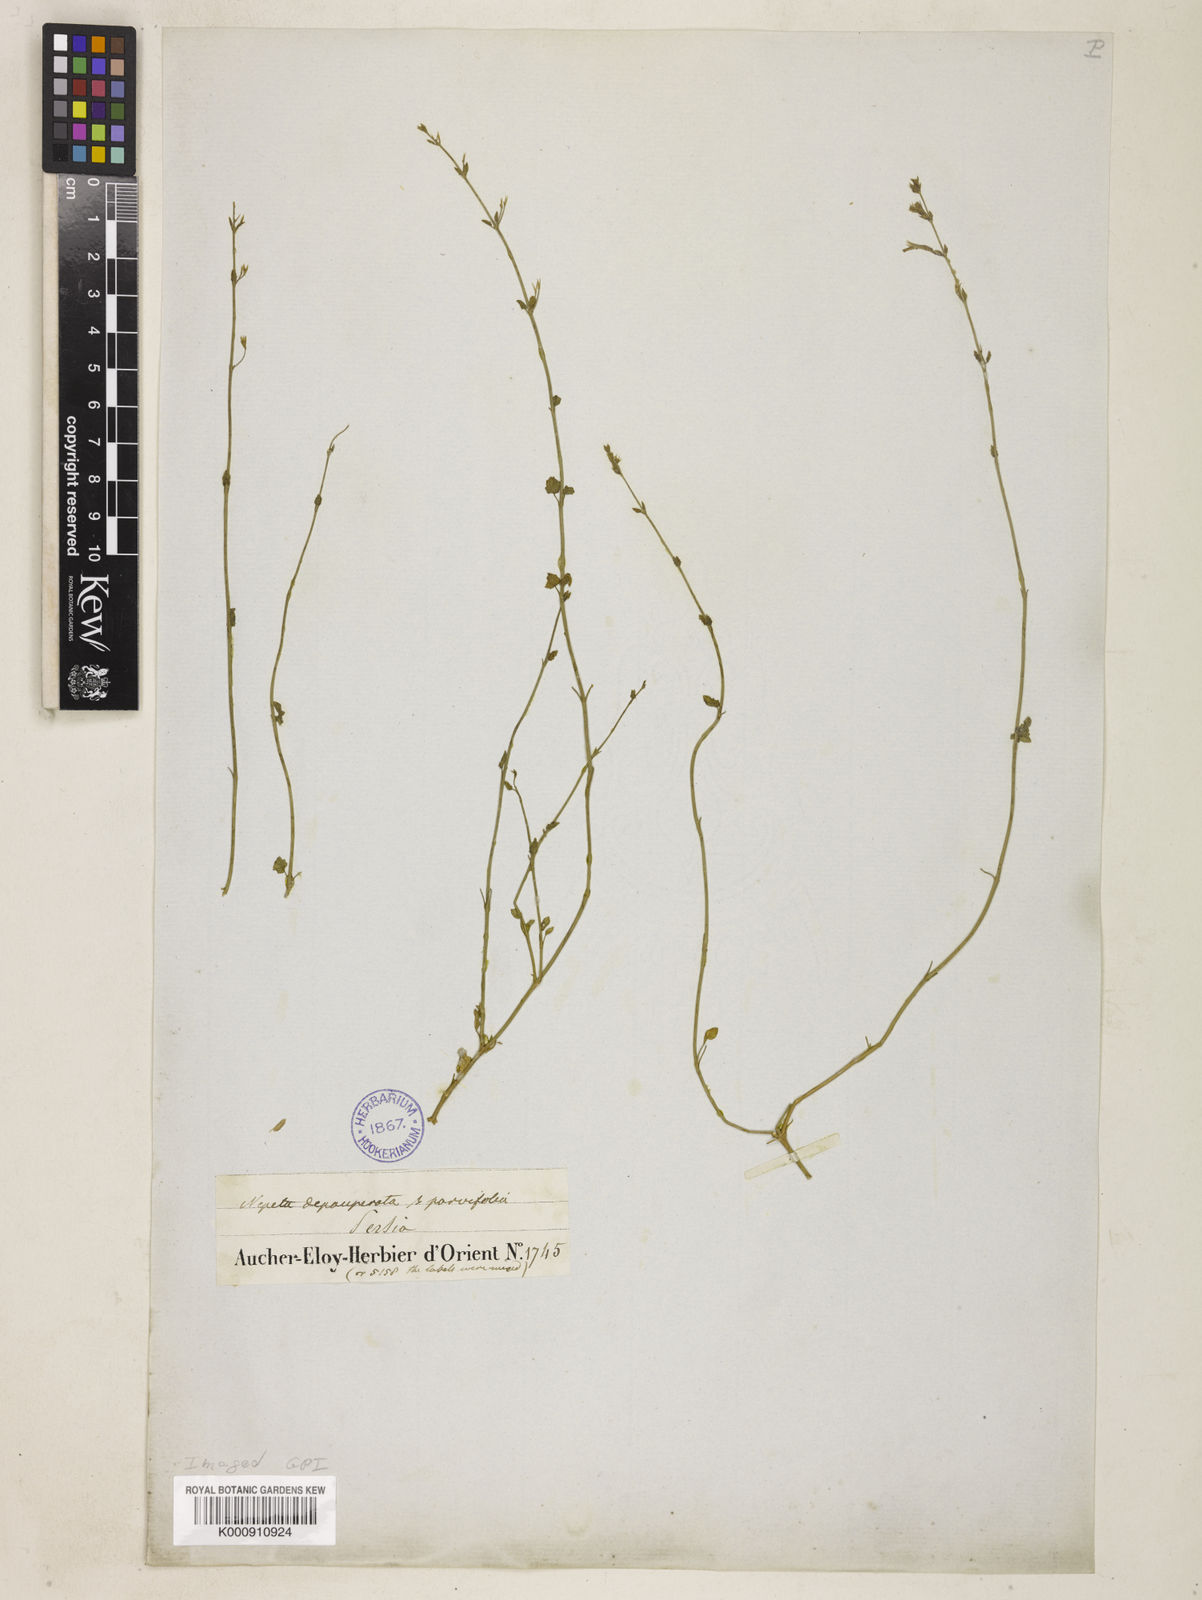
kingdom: Plantae
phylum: Tracheophyta
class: Magnoliopsida
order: Lamiales
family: Lamiaceae
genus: Nepeta
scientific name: Nepeta depauperata
